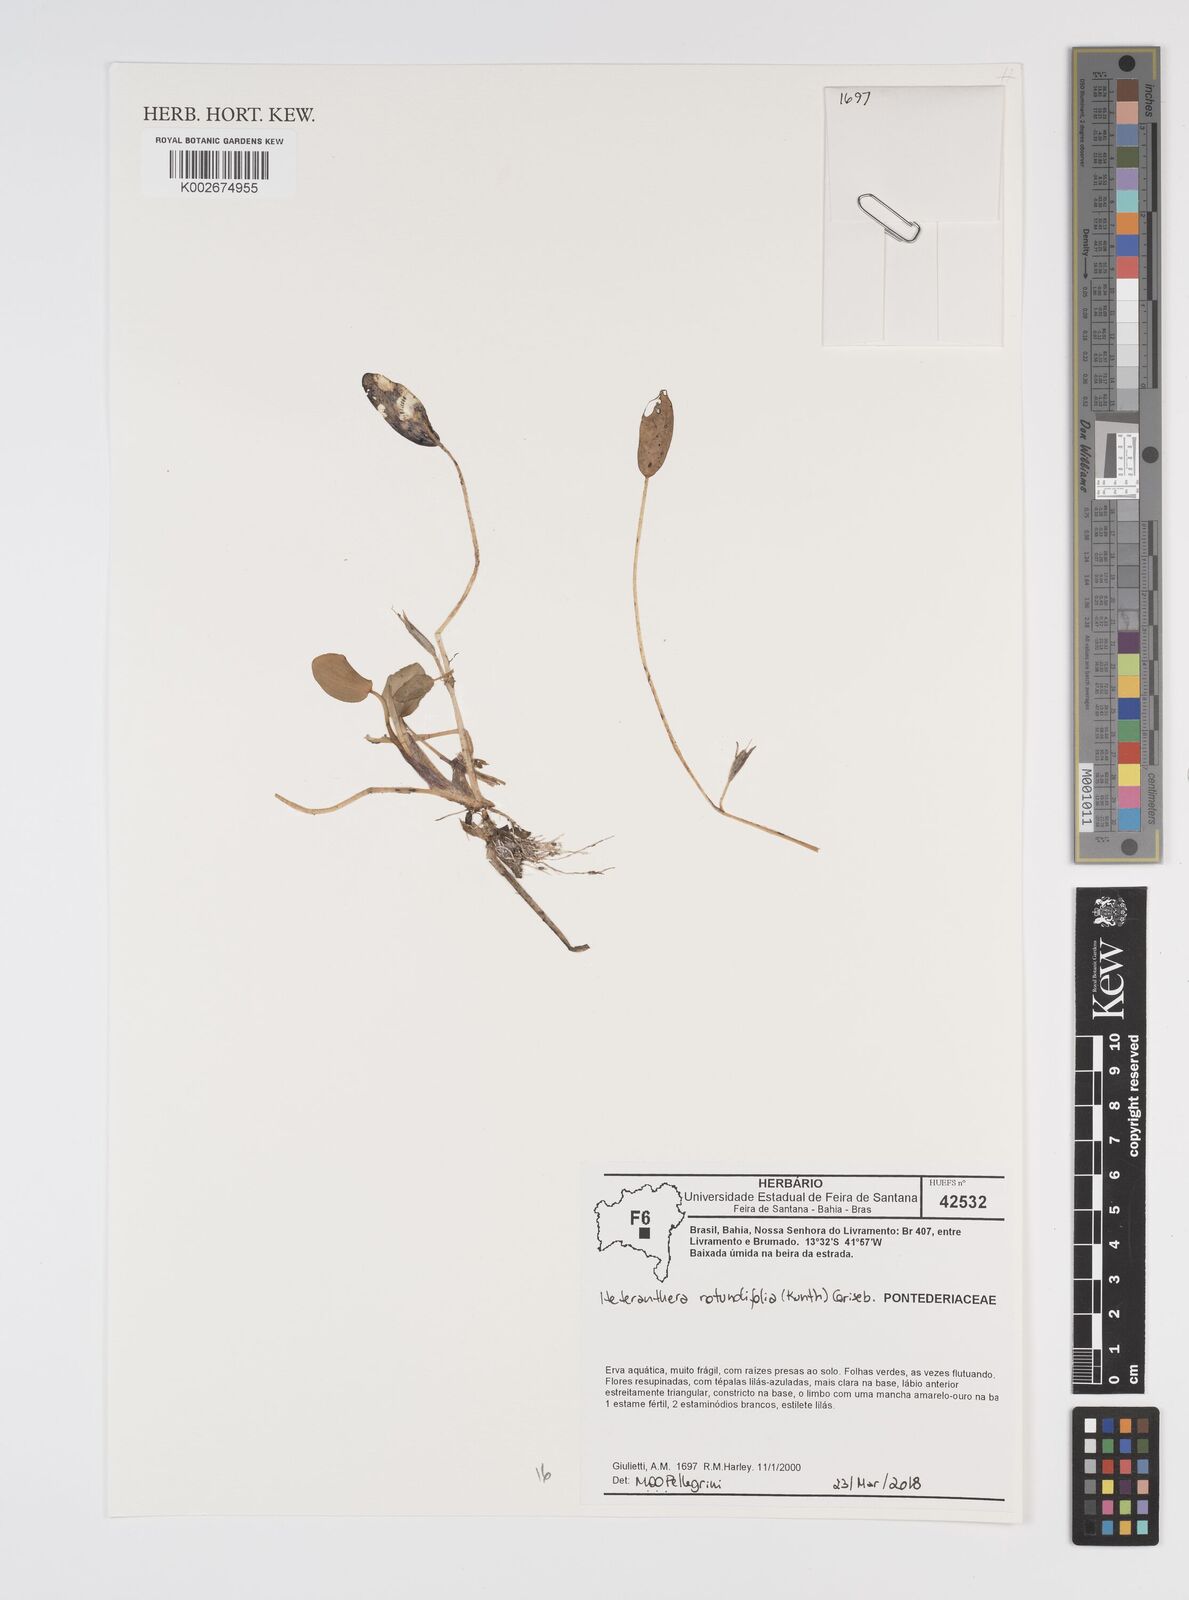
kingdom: Plantae
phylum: Tracheophyta
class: Liliopsida
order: Commelinales
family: Pontederiaceae
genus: Heteranthera
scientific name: Heteranthera rotundifolia
